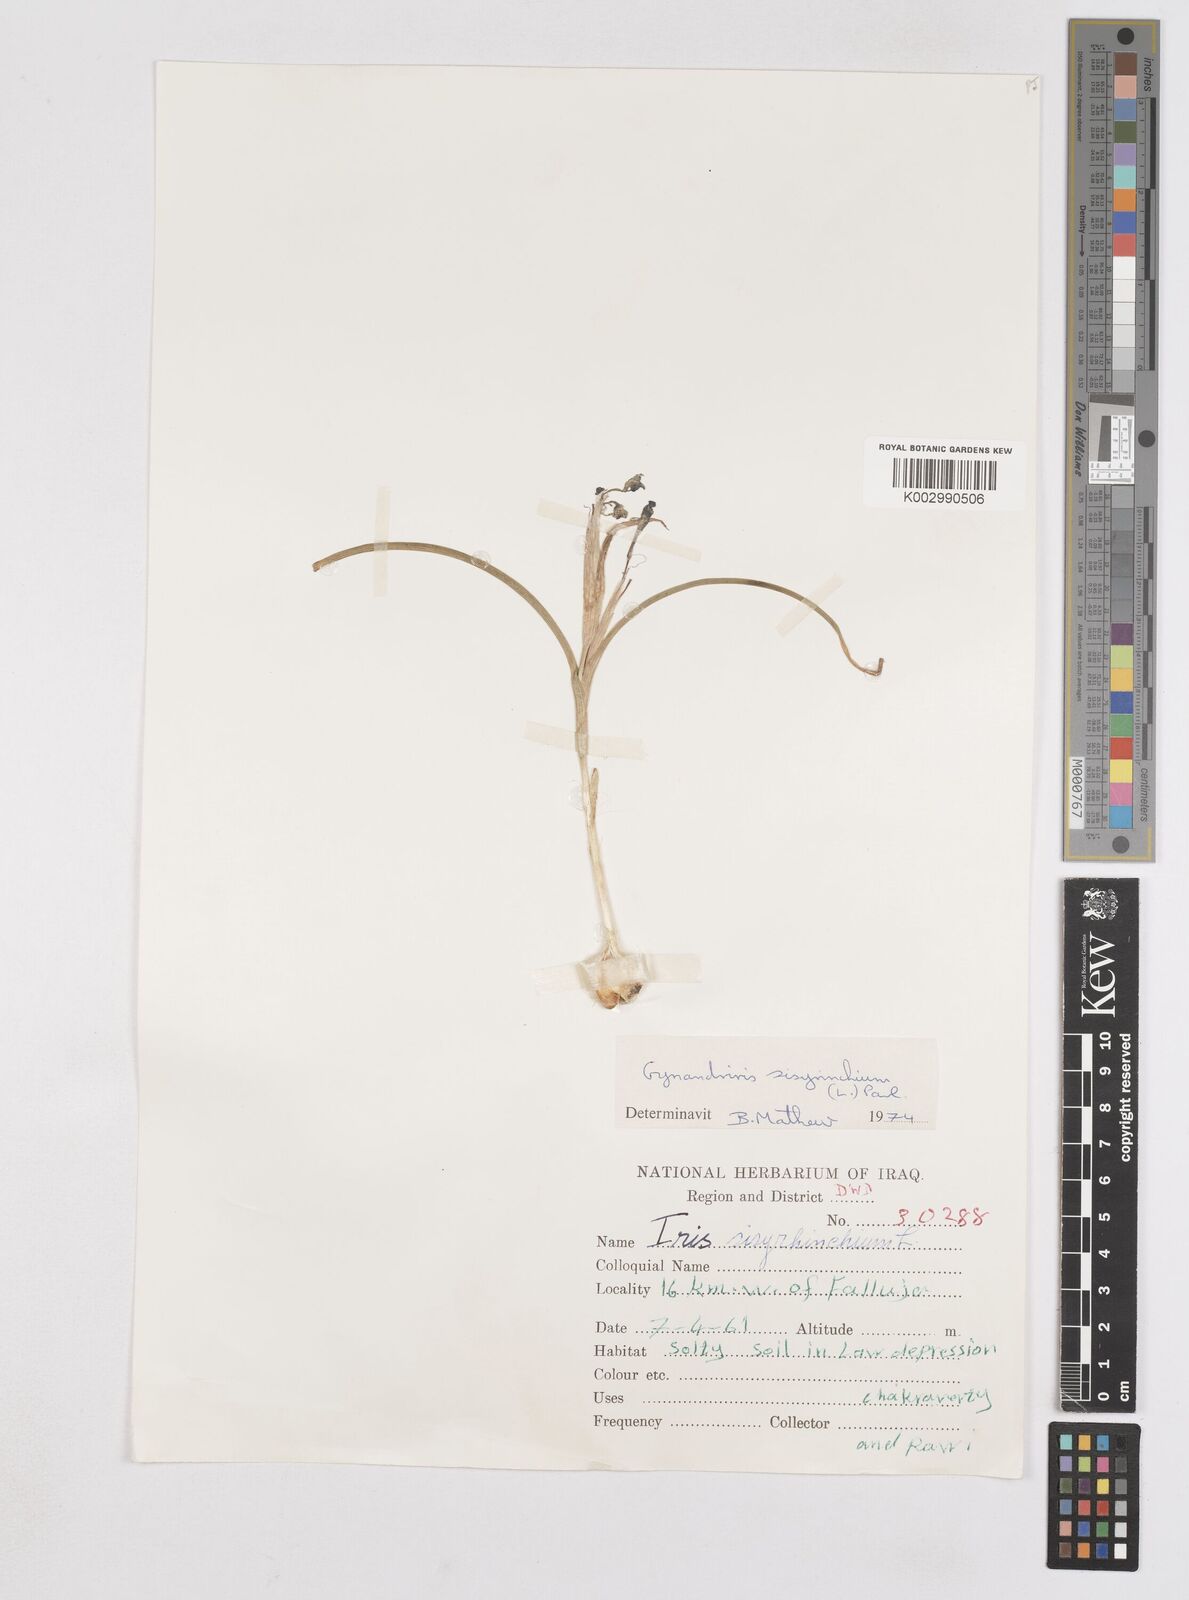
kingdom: Plantae
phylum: Tracheophyta
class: Liliopsida
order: Asparagales
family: Iridaceae
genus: Moraea
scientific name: Moraea sisyrinchium
